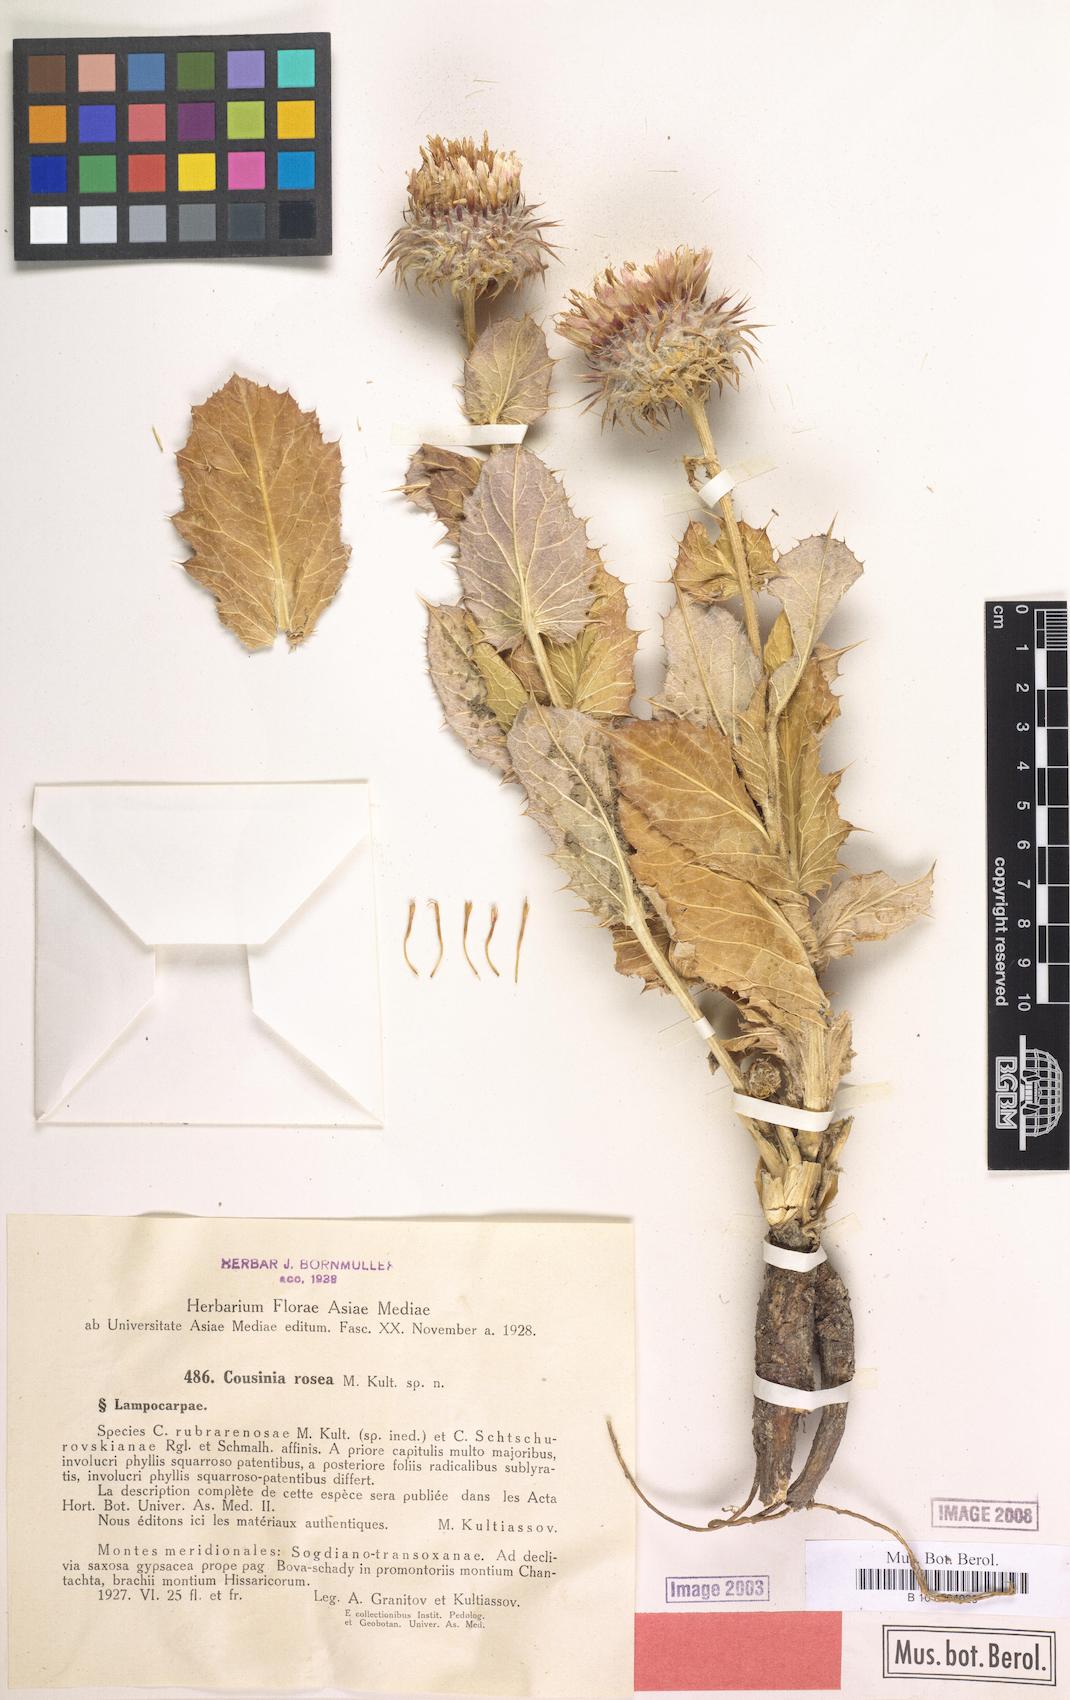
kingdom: Plantae
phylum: Tracheophyta
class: Magnoliopsida
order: Asterales
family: Asteraceae
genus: Cousinia
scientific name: Cousinia rosea
